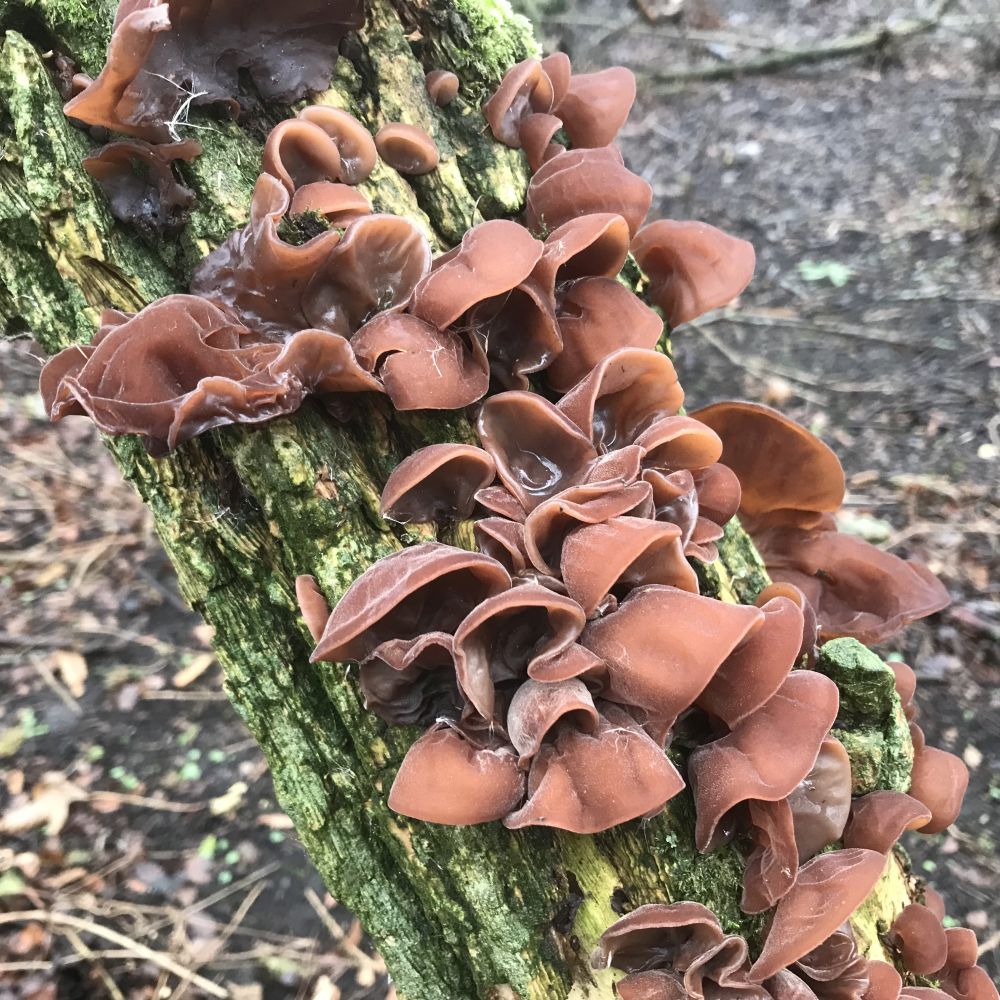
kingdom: Fungi
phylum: Basidiomycota
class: Agaricomycetes
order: Auriculariales
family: Auriculariaceae
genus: Auricularia
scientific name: Auricularia auricula-judae
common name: almindelig judasøre
